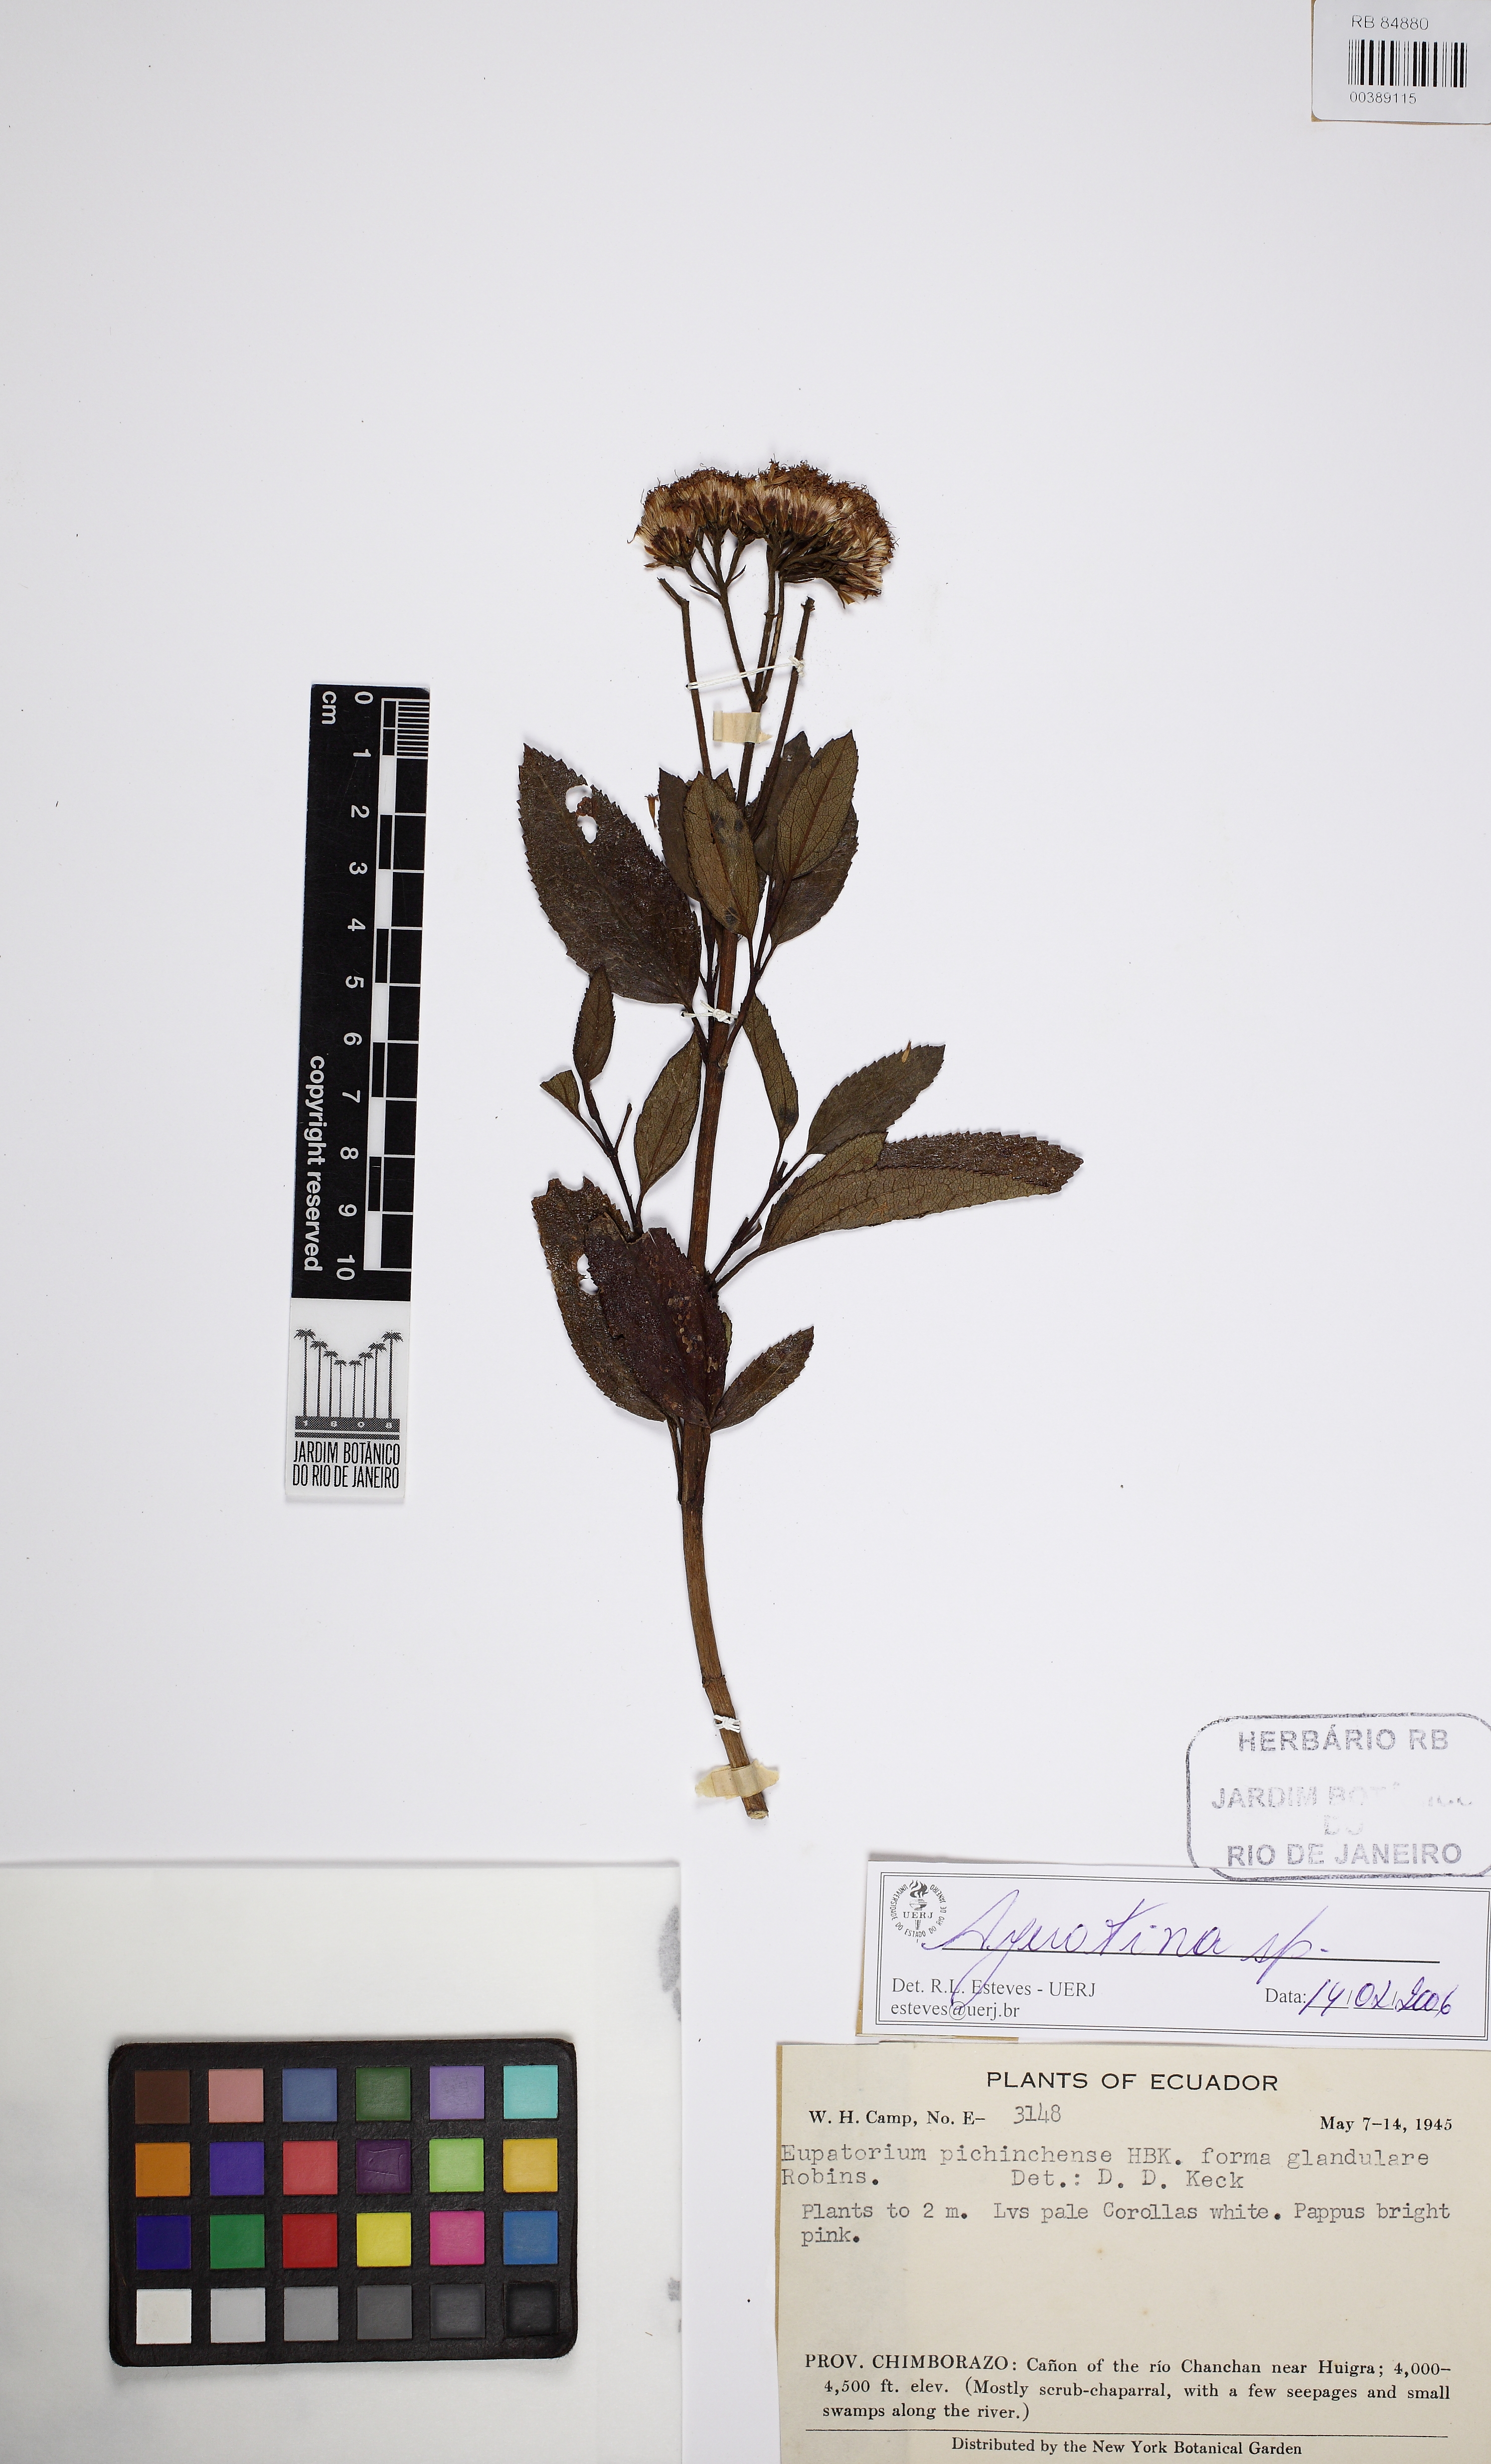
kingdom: Plantae
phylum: Tracheophyta
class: Magnoliopsida
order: Asterales
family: Asteraceae
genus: Ageratina
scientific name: Ageratina
